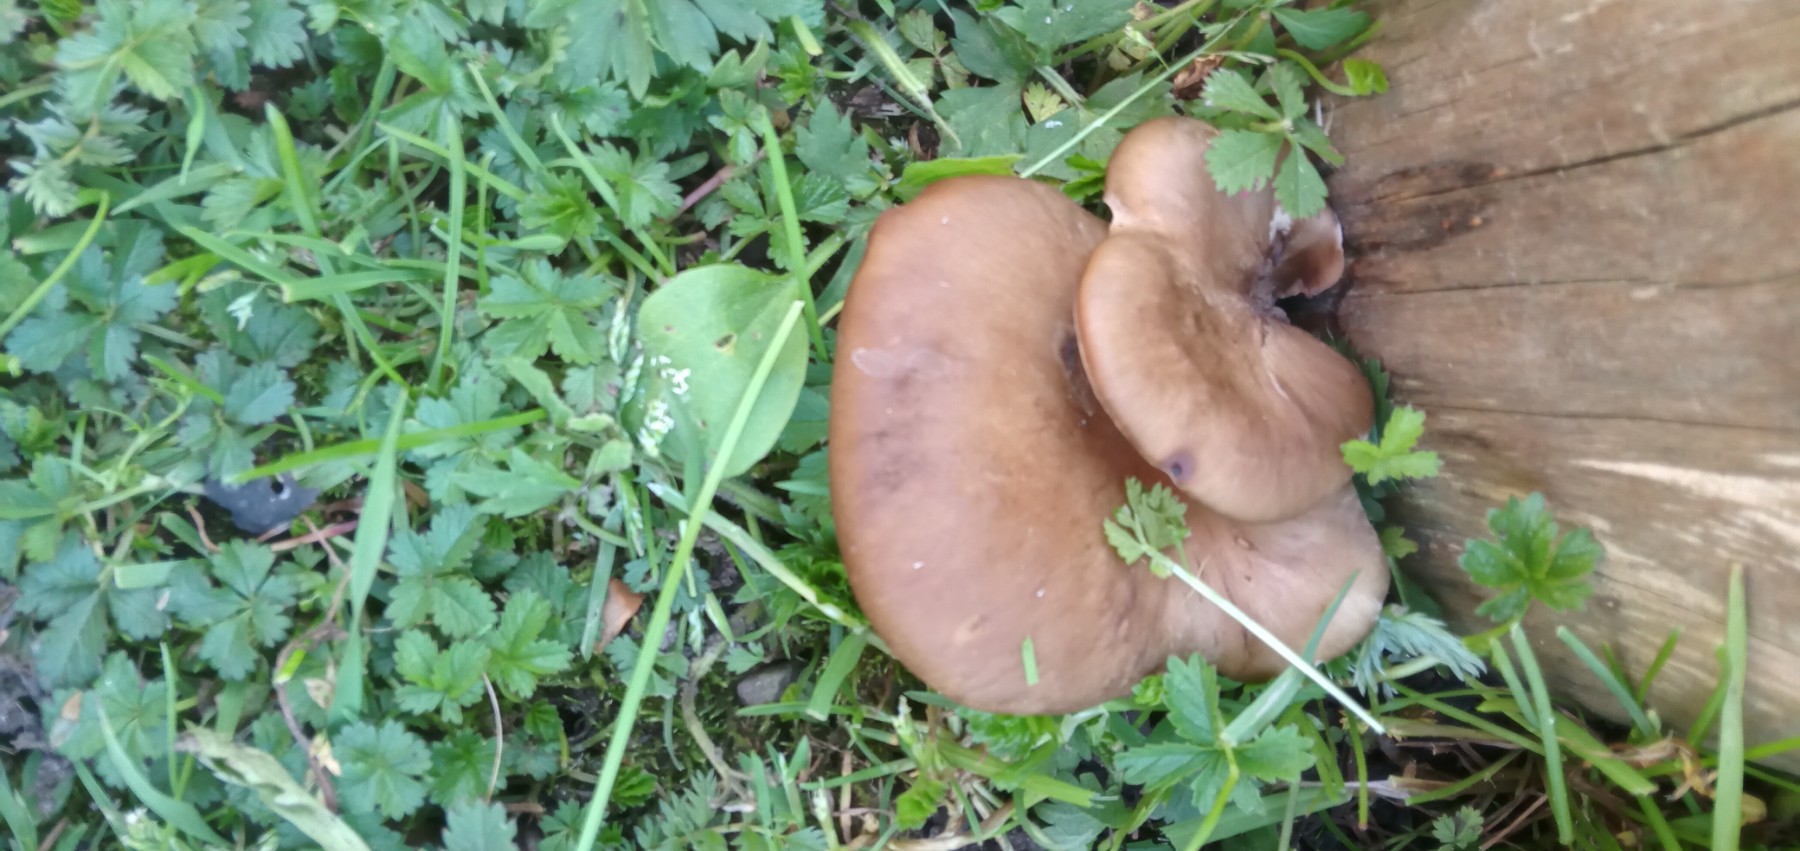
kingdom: Fungi
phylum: Basidiomycota
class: Agaricomycetes
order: Polyporales
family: Polyporaceae
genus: Picipes
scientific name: Picipes badius
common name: kastaniebrun stilkporesvamp
